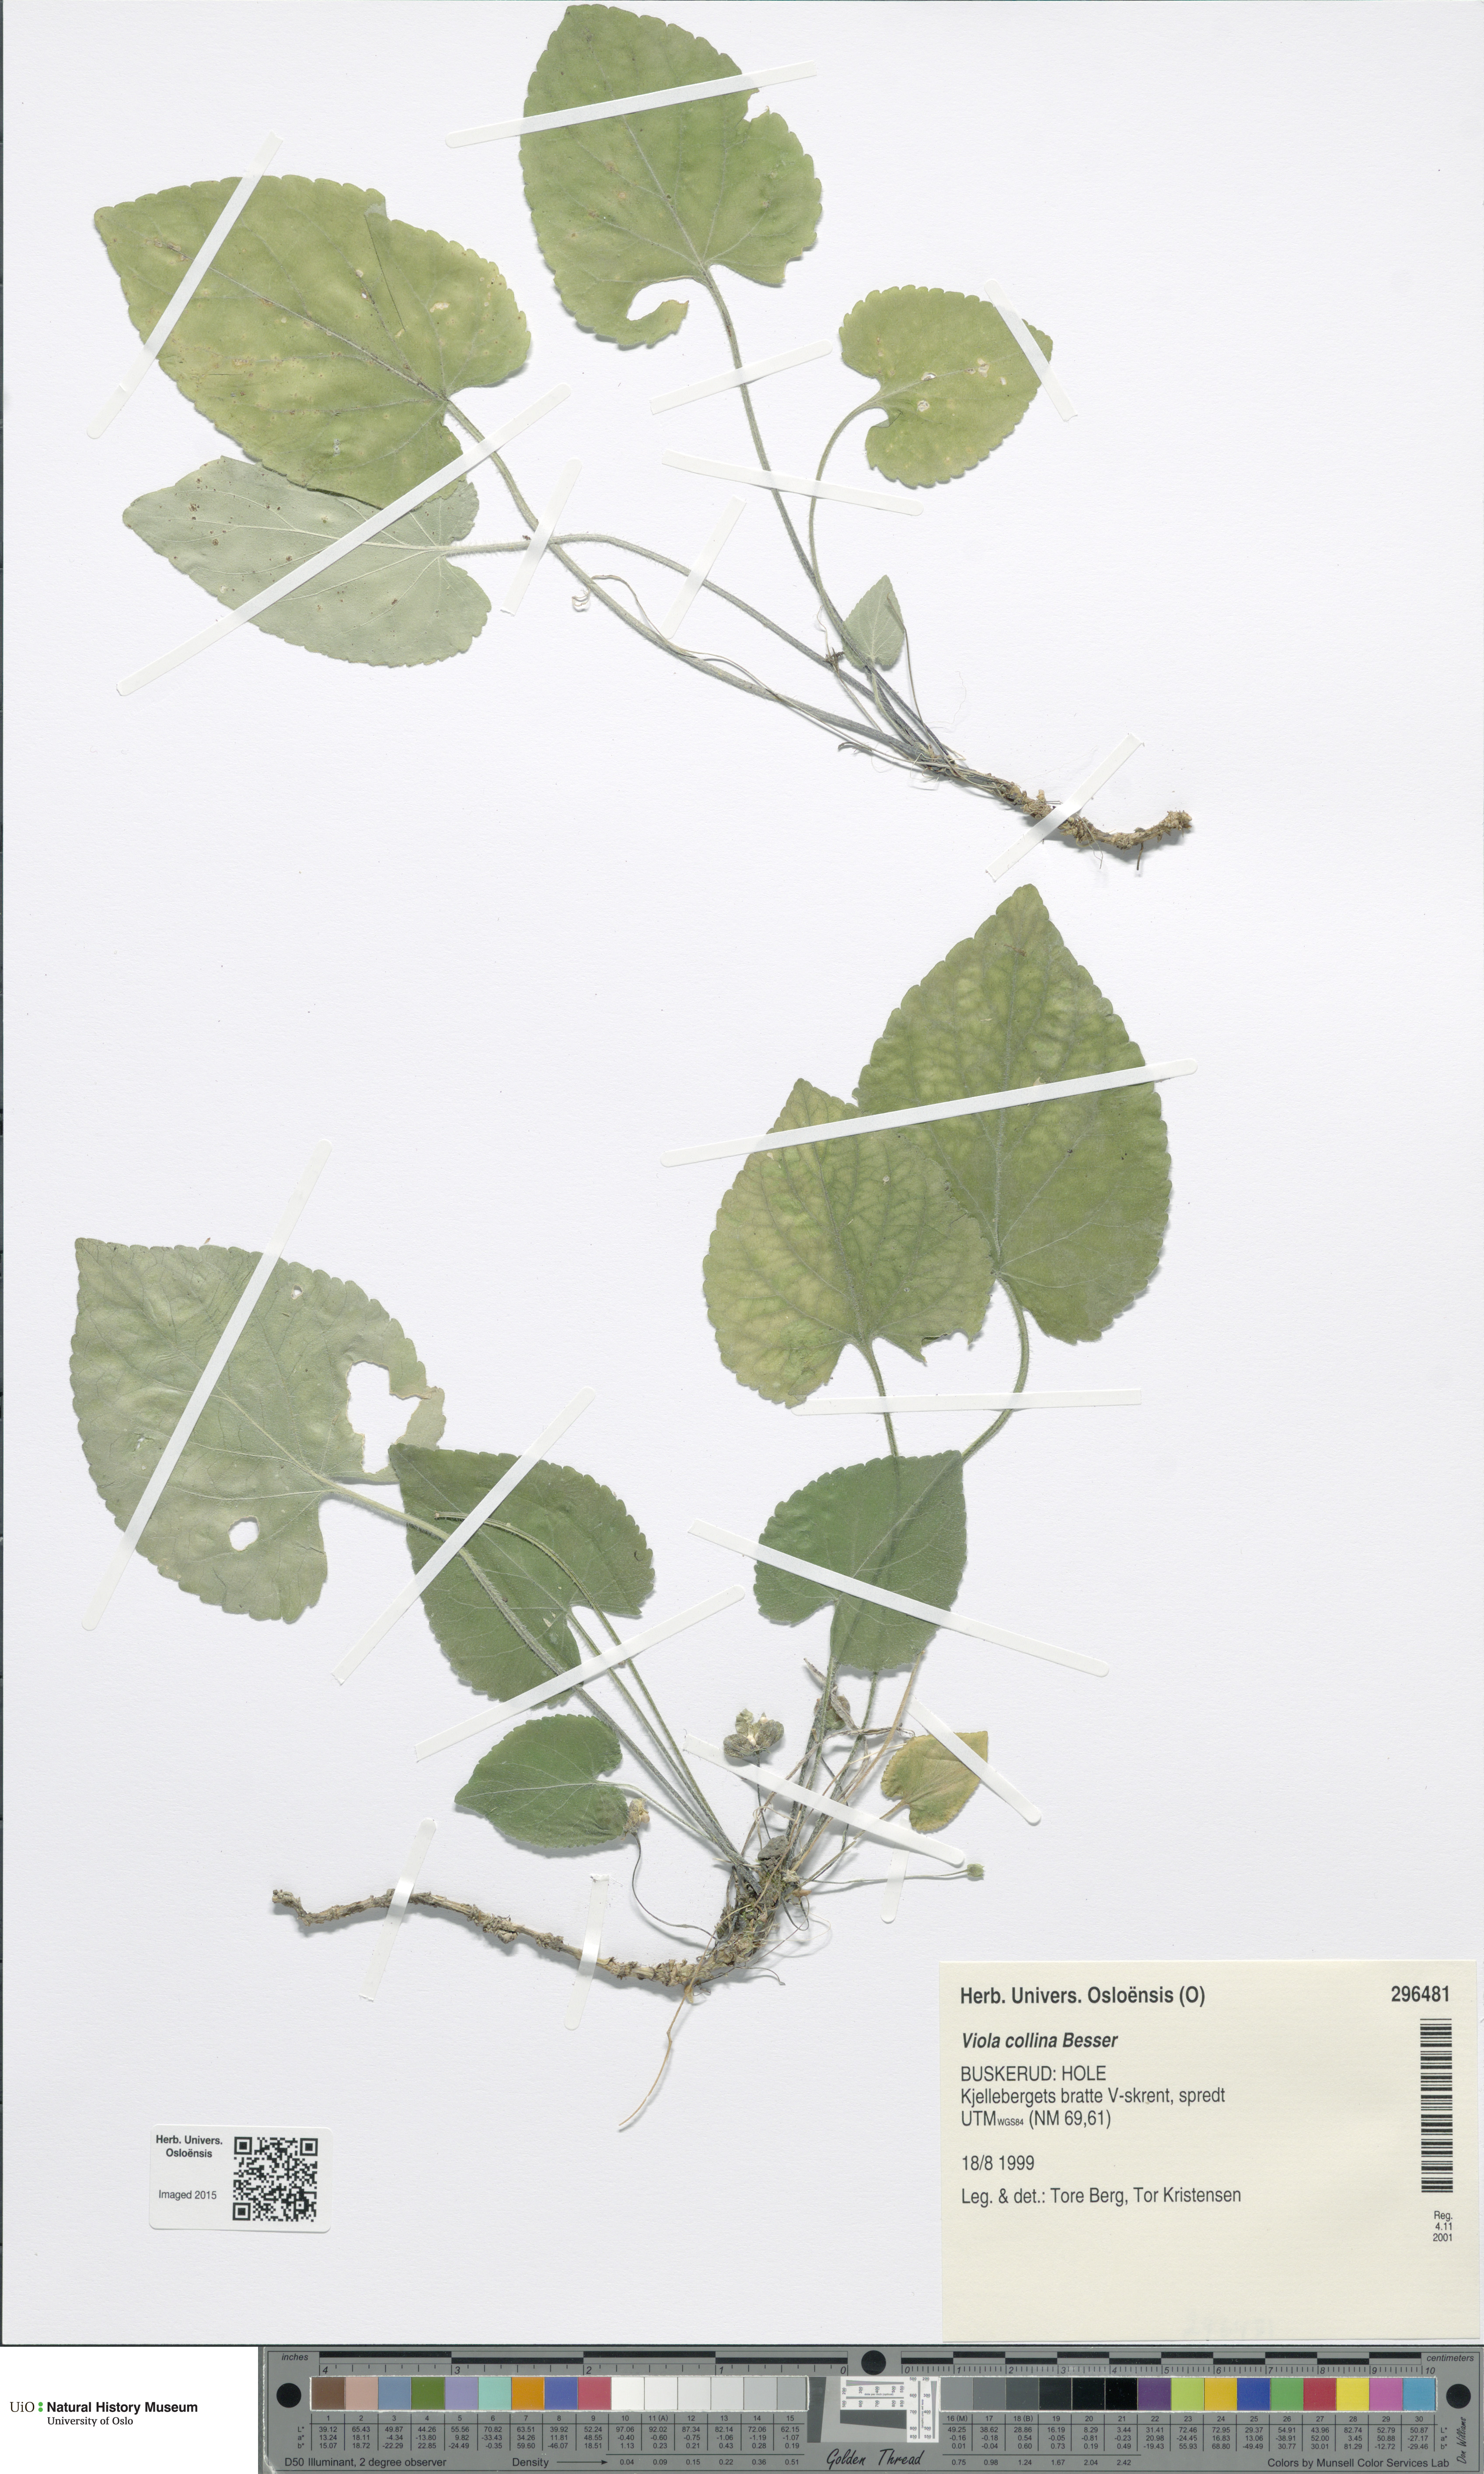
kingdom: Plantae
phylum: Tracheophyta
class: Magnoliopsida
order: Malpighiales
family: Violaceae
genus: Viola
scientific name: Viola collina
